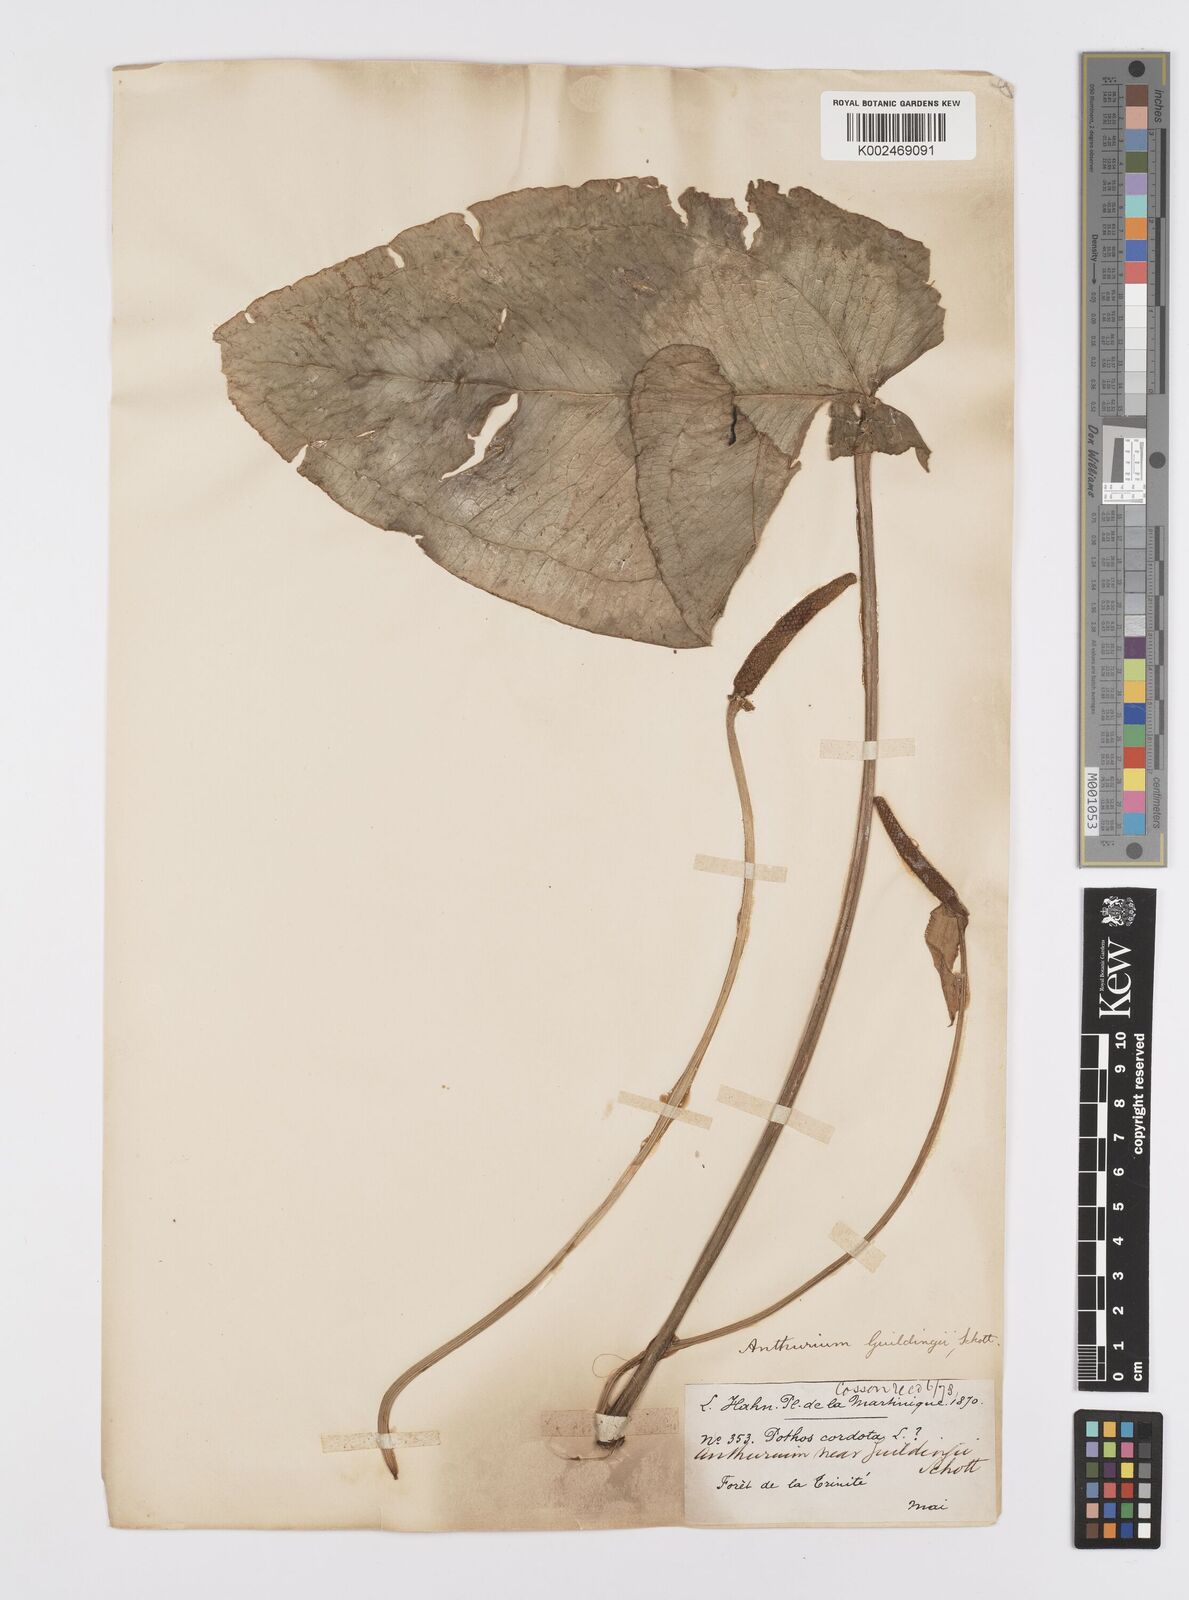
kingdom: Plantae
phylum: Tracheophyta
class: Liliopsida
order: Alismatales
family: Araceae
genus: Anthurium
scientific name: Anthurium
